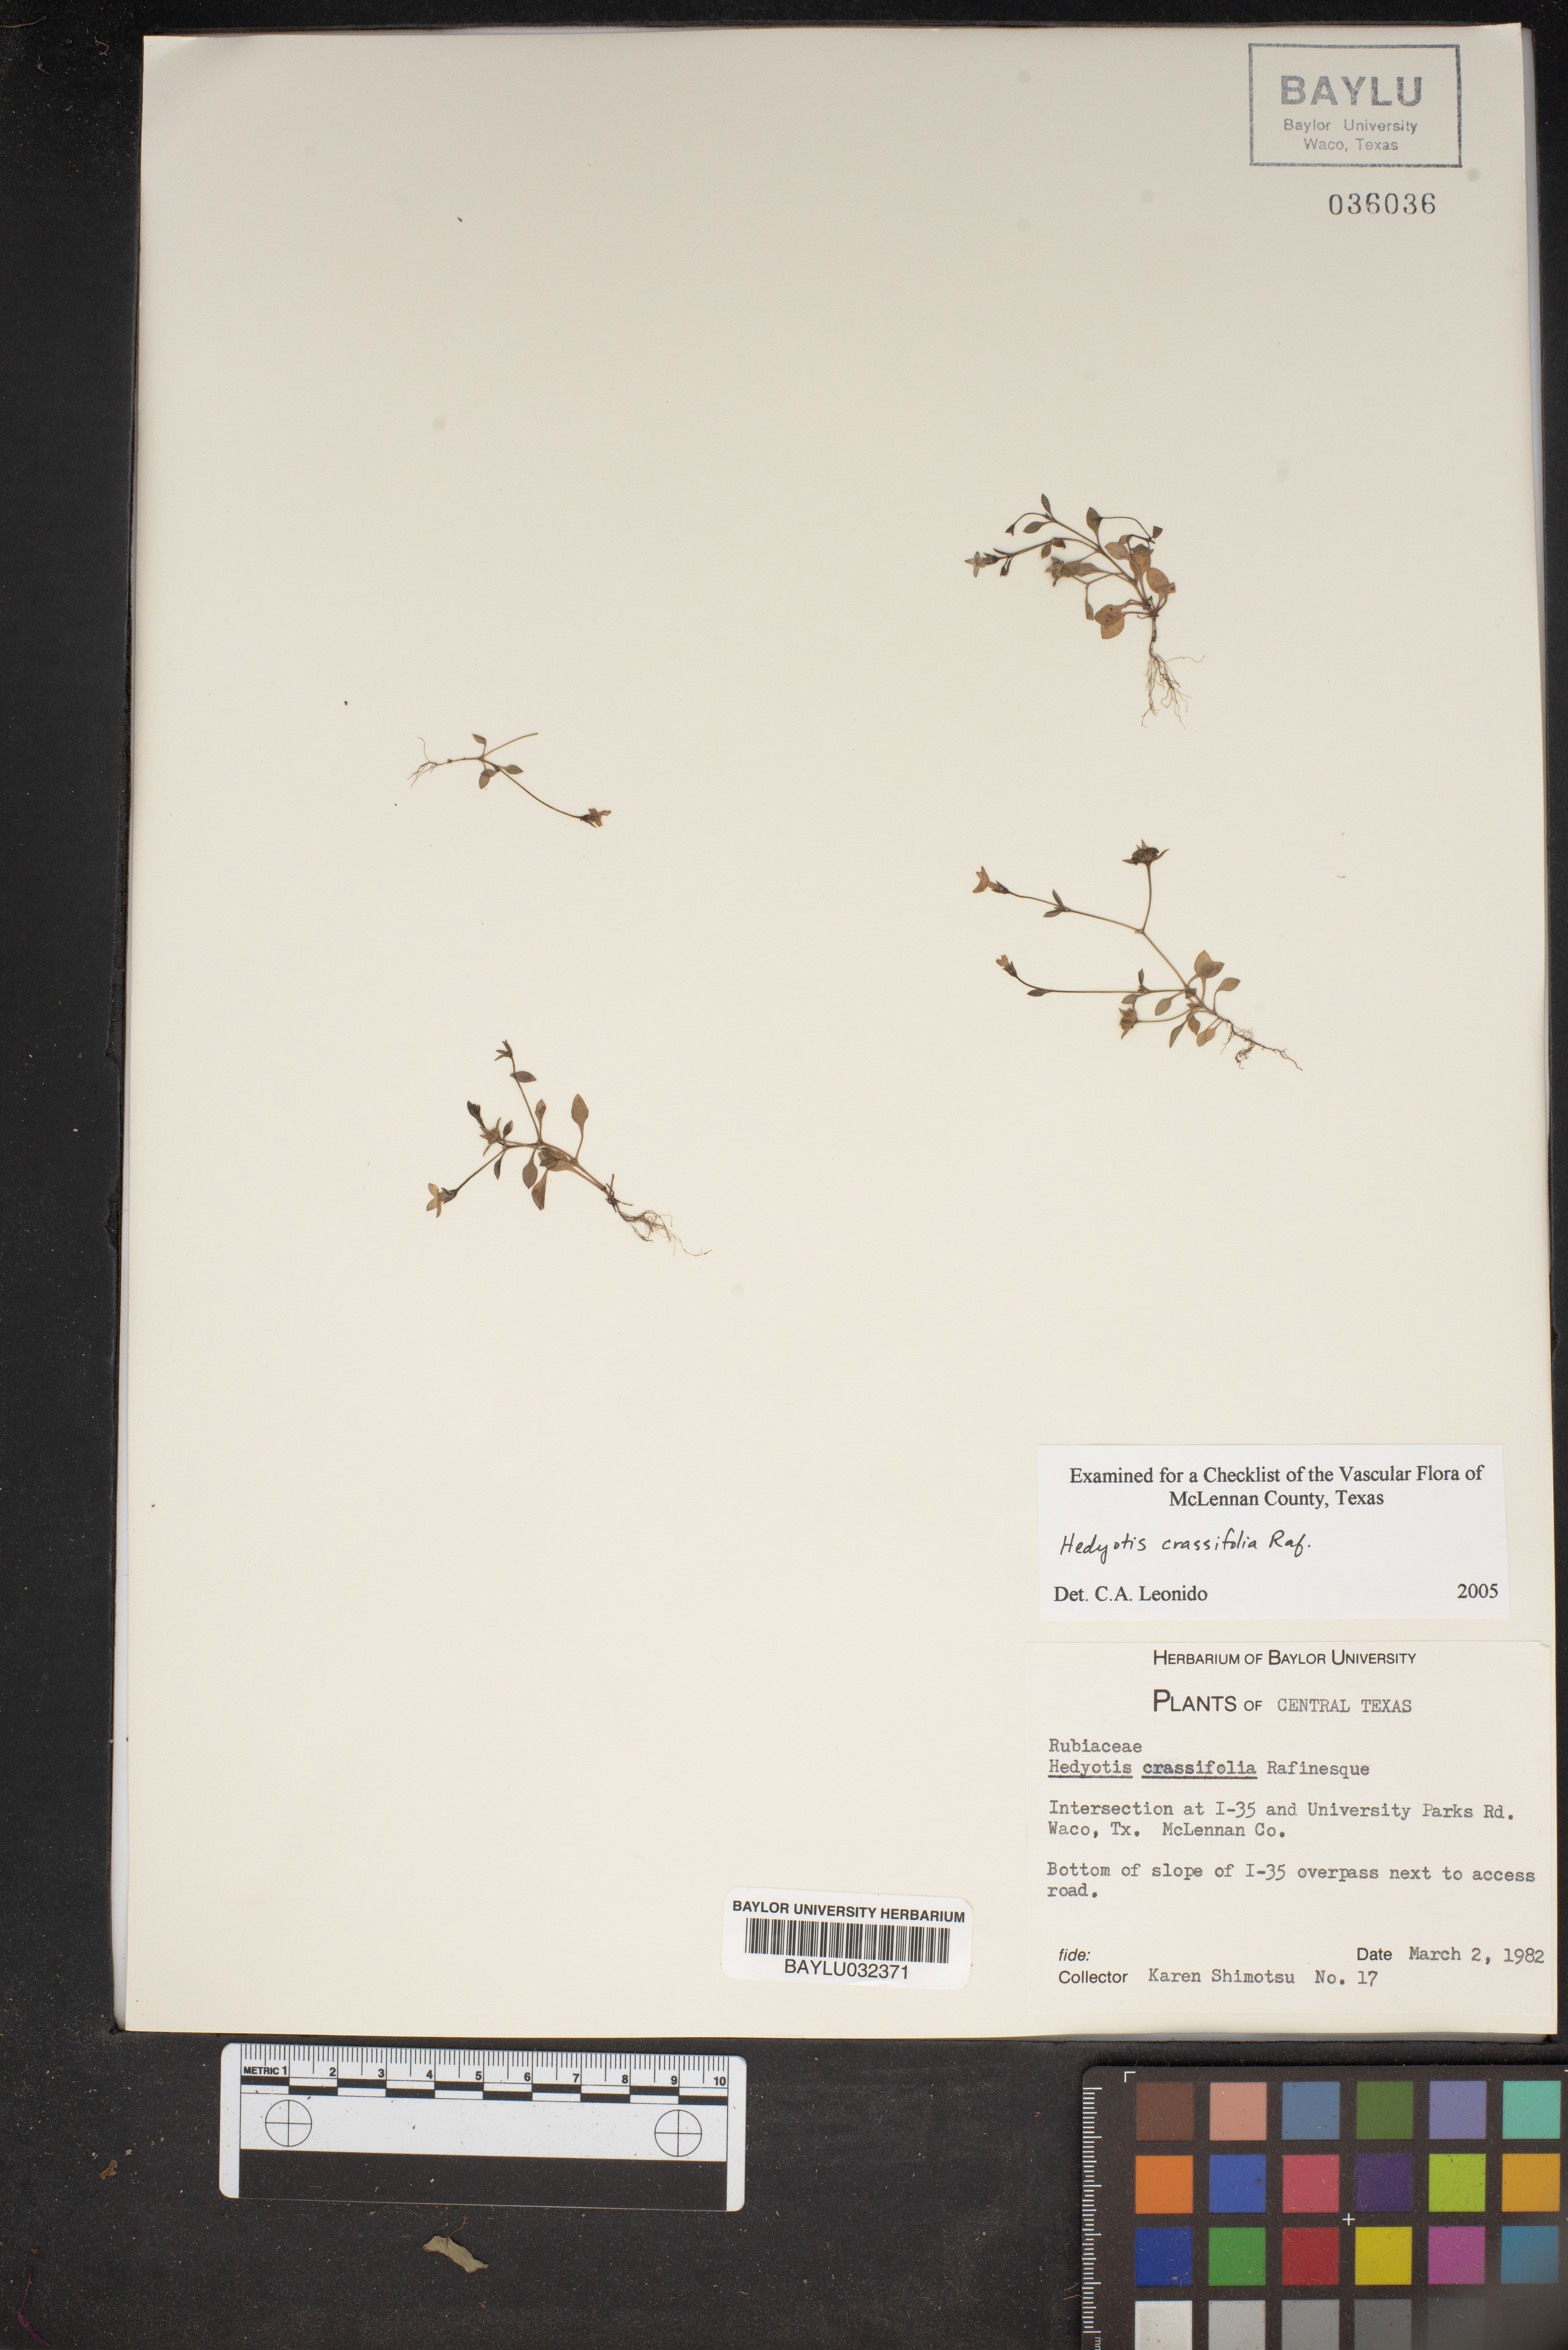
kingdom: Plantae
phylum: Tracheophyta
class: Magnoliopsida
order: Gentianales
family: Rubiaceae
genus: Houstonia
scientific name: Houstonia pusilla
